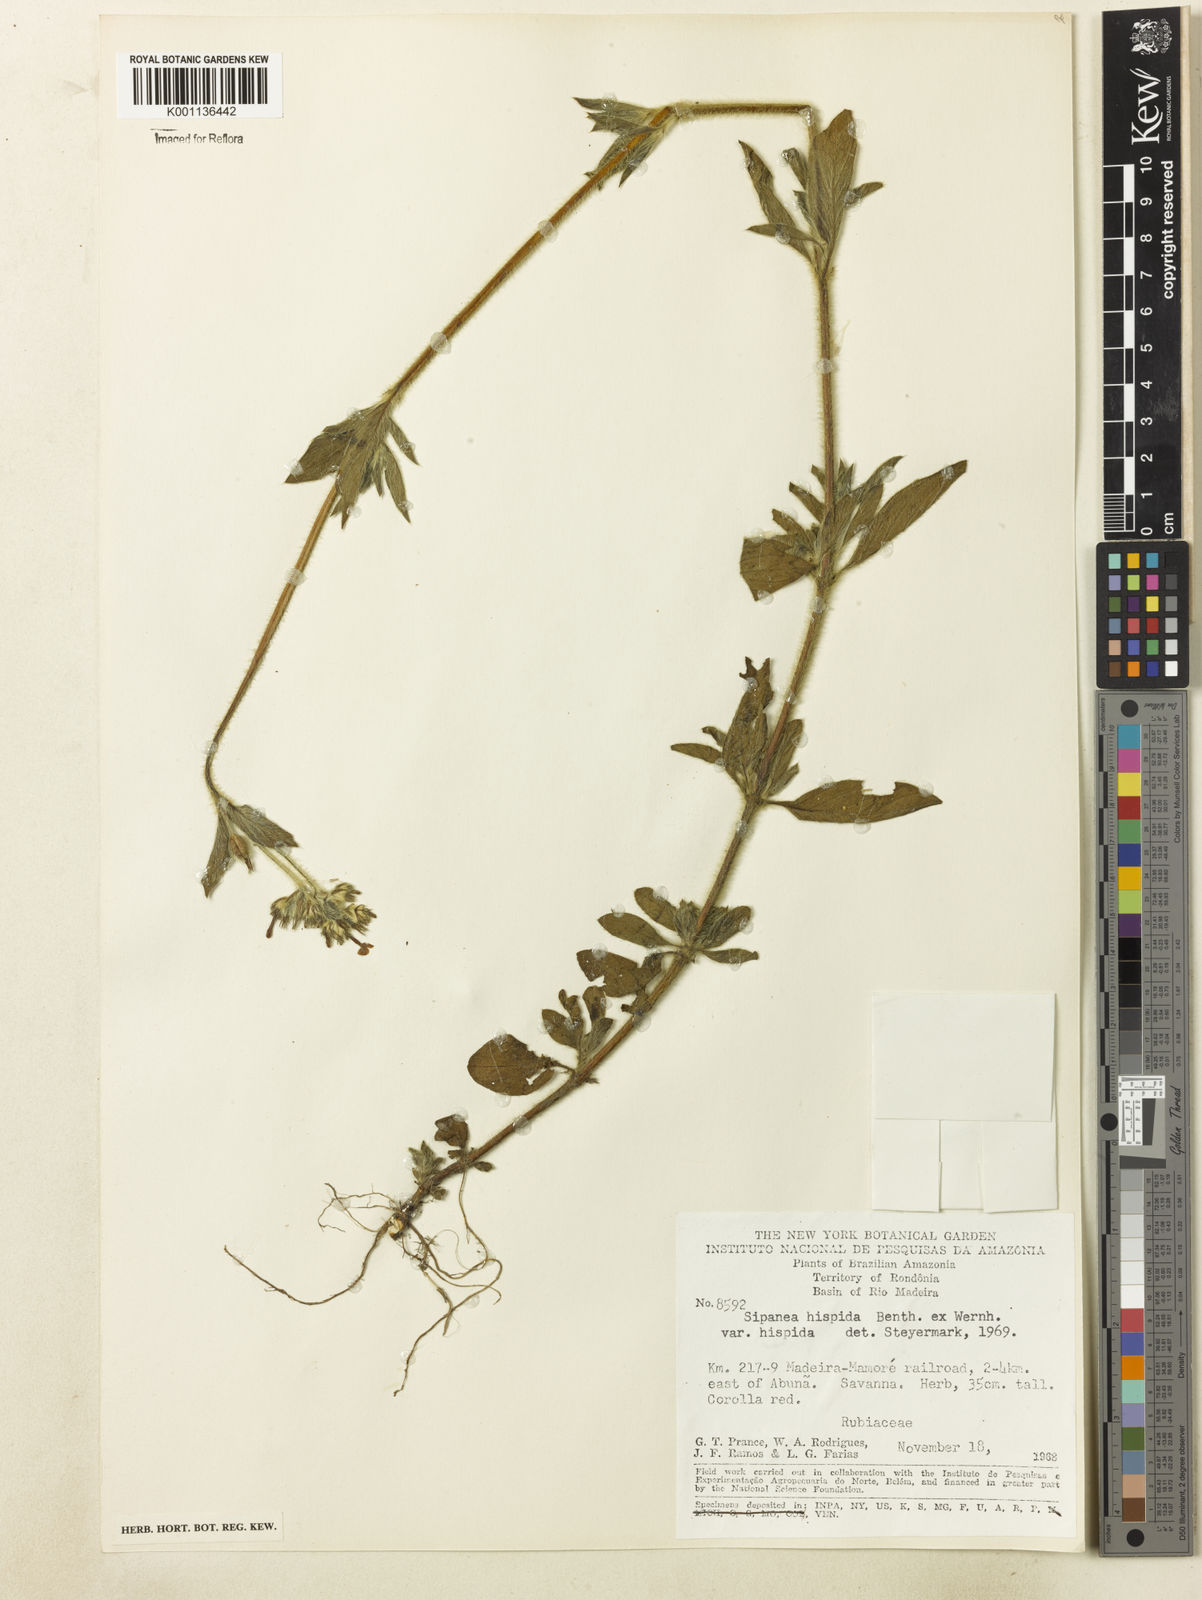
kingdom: Plantae
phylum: Tracheophyta
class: Magnoliopsida
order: Gentianales
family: Rubiaceae
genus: Sipanea
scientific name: Sipanea hispida
